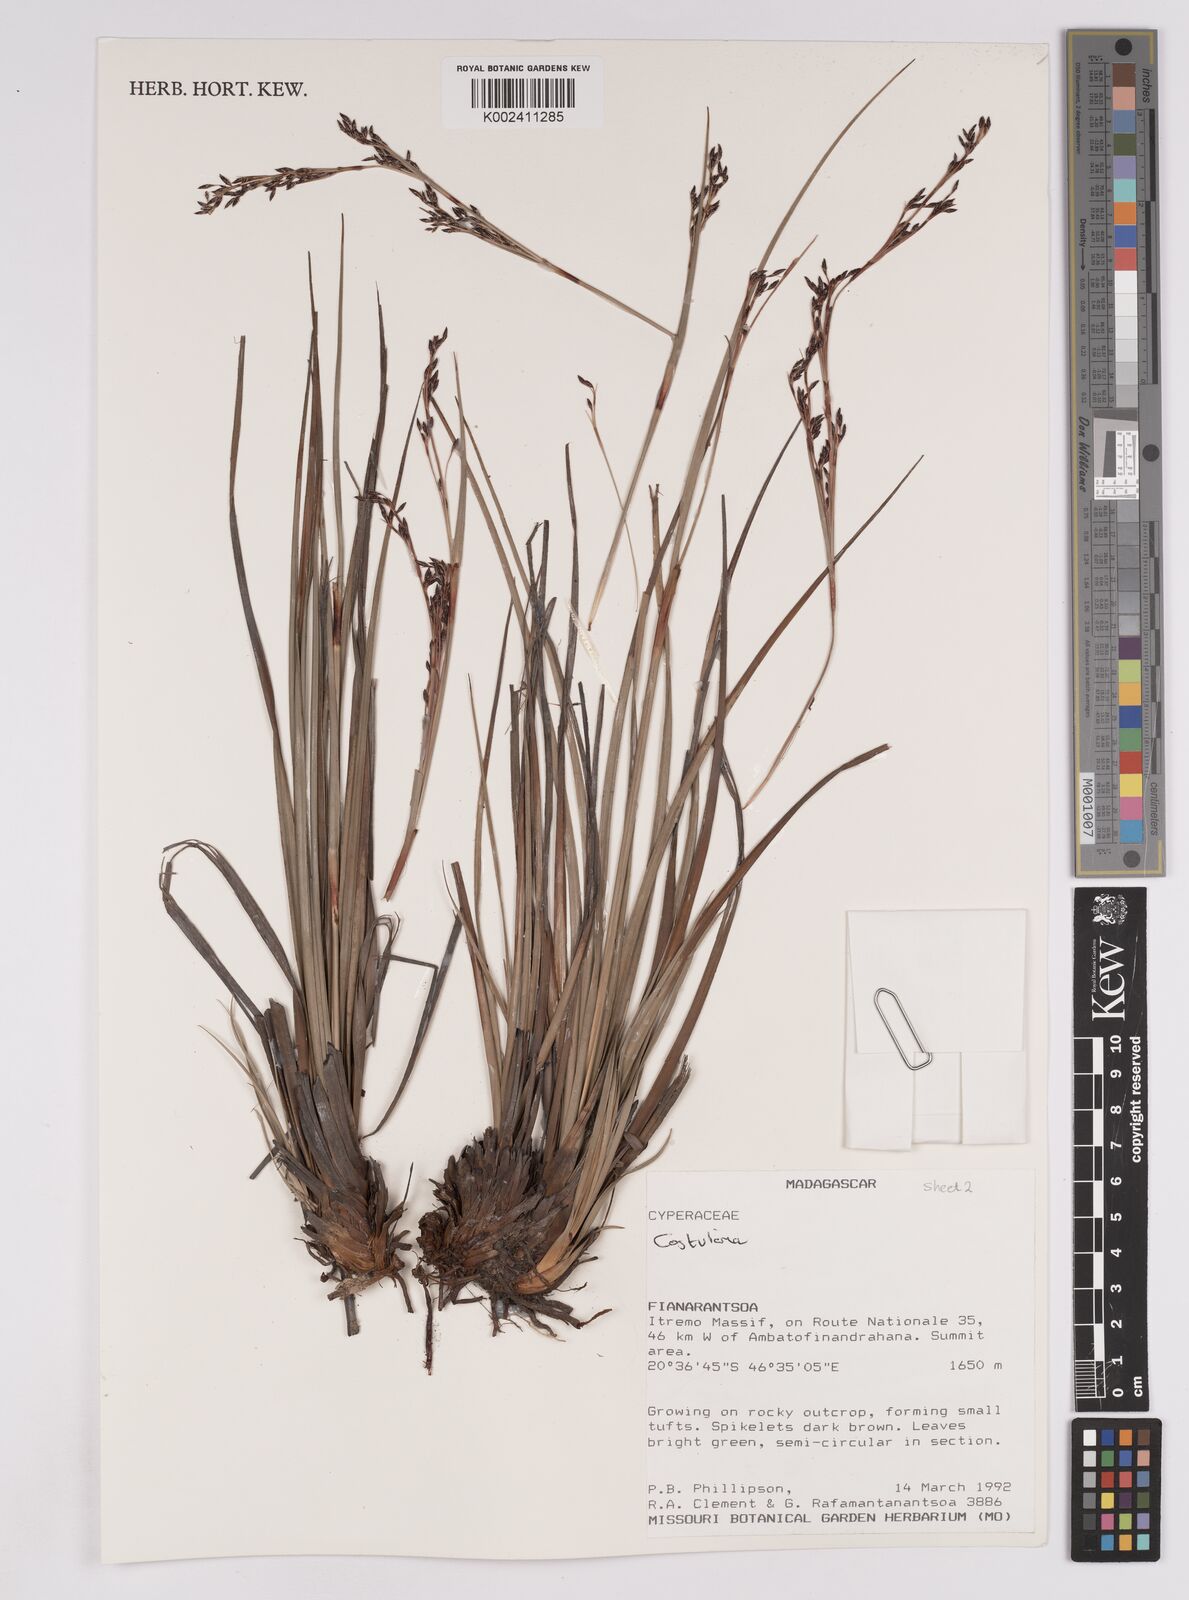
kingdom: Plantae
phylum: Tracheophyta
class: Liliopsida
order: Poales
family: Cyperaceae
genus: Costularia
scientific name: Costularia itremoensis
